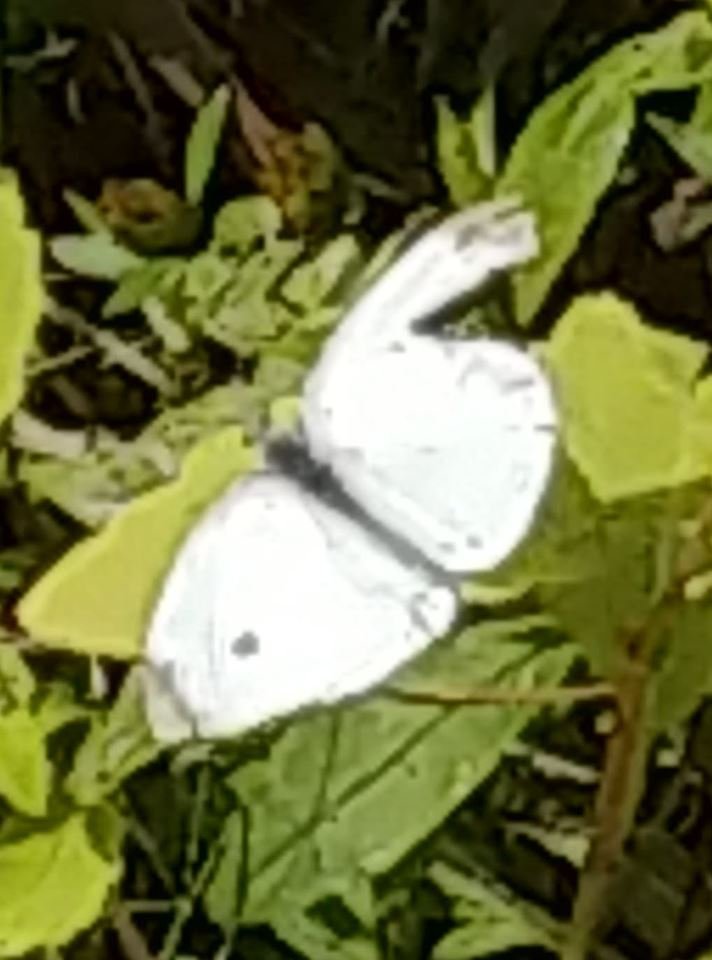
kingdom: Animalia
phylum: Arthropoda
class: Insecta
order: Lepidoptera
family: Pieridae
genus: Pieris
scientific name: Pieris rapae
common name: Cabbage White
